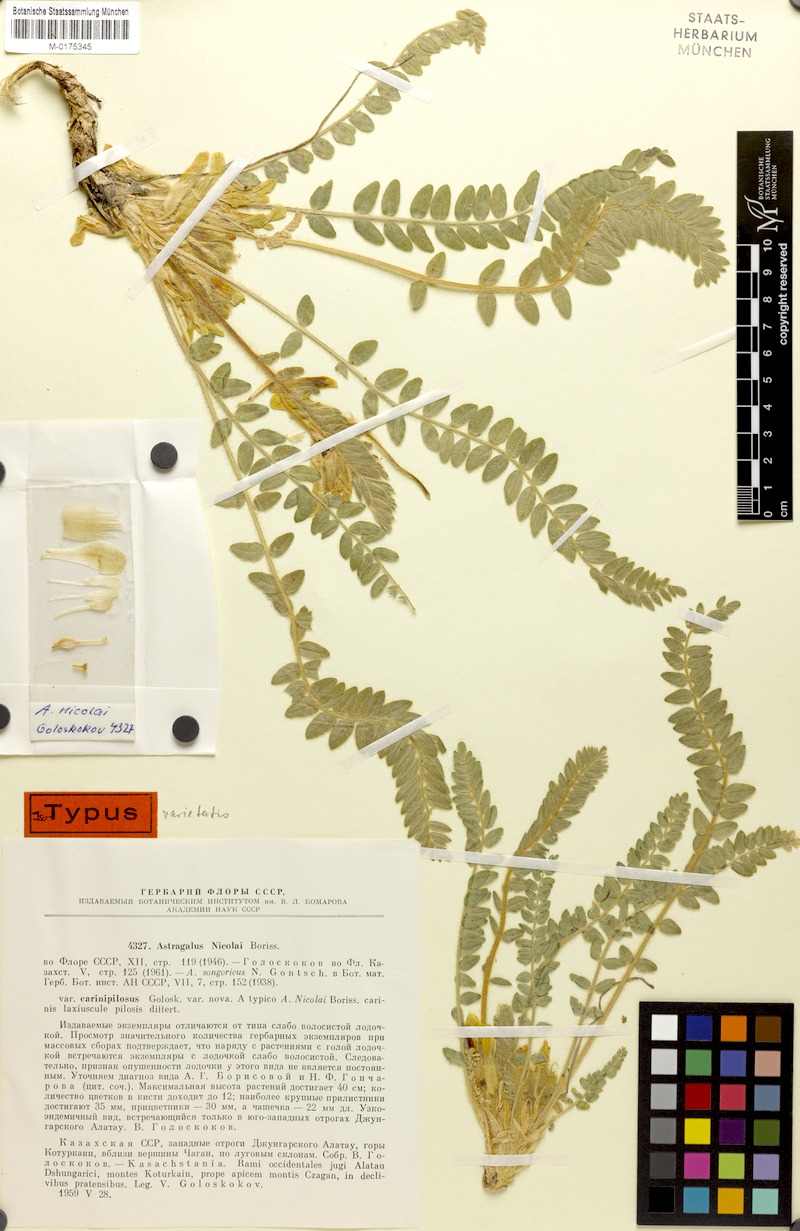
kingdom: Plantae
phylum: Tracheophyta
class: Magnoliopsida
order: Fabales
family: Fabaceae
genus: Astragalus
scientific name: Astragalus nicolaii
